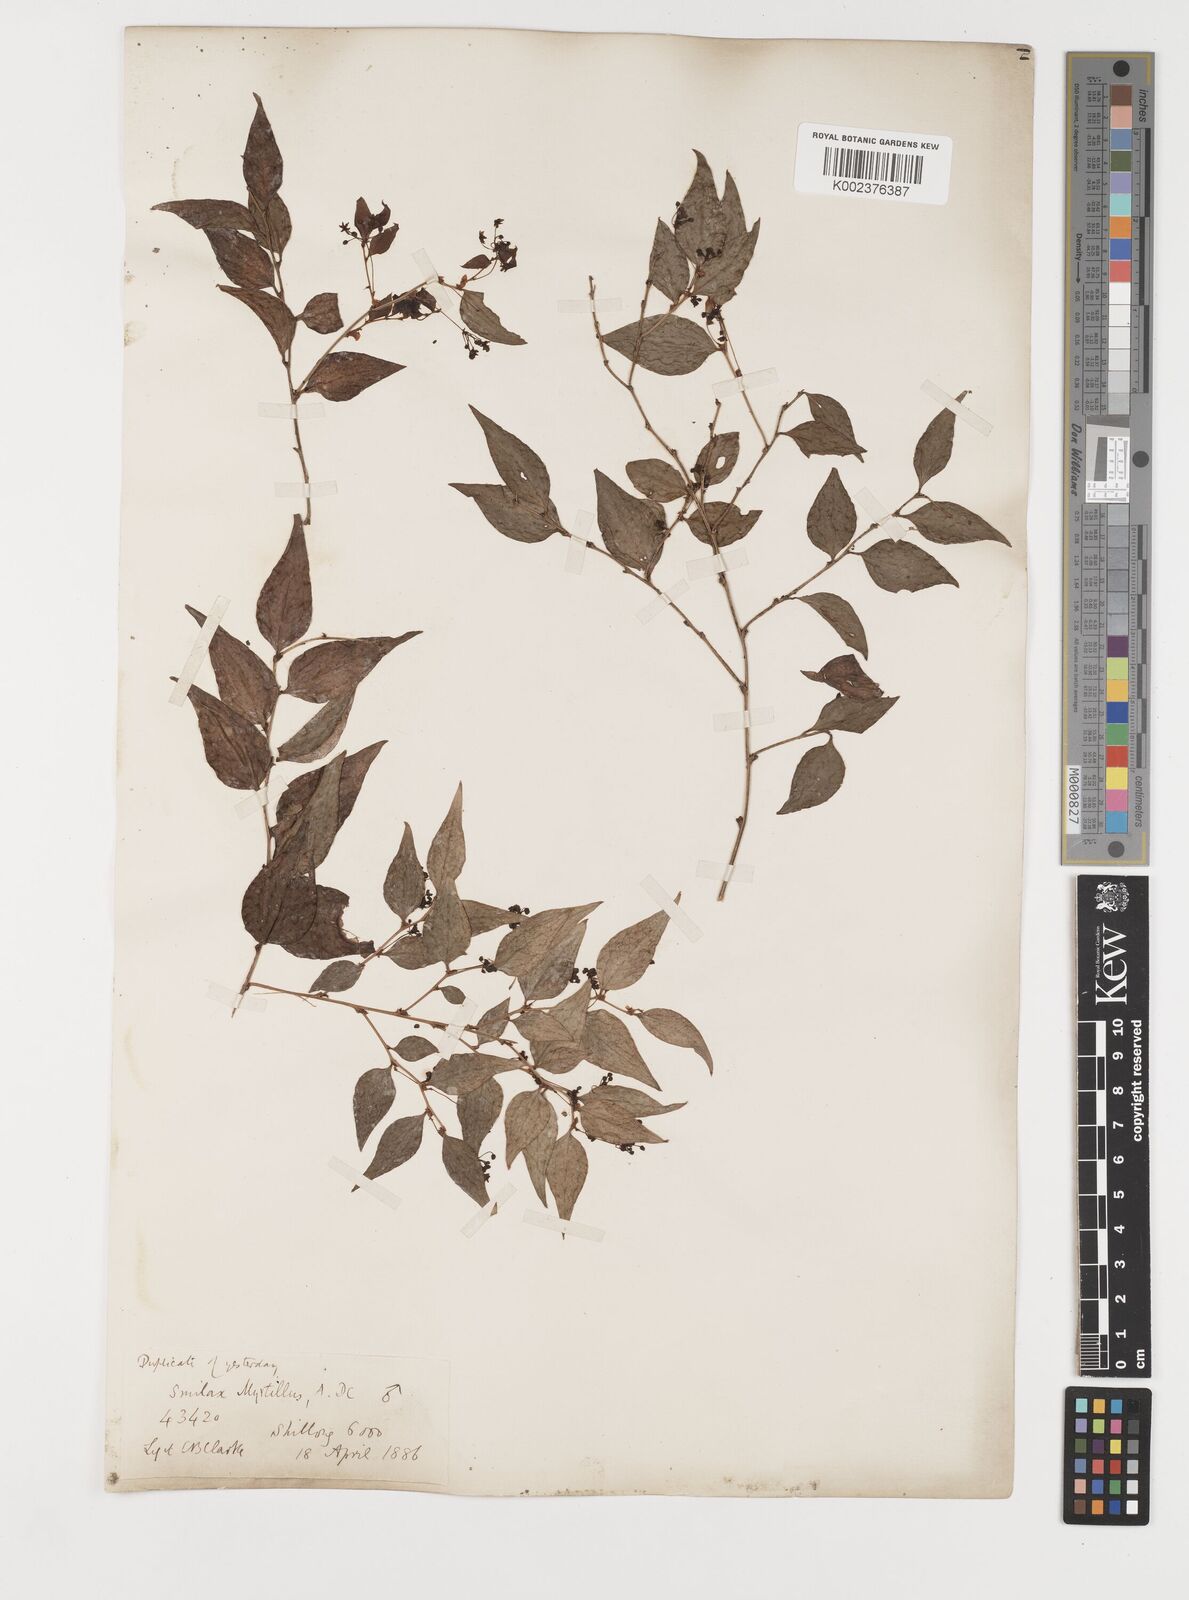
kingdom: Plantae
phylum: Tracheophyta
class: Liliopsida
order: Liliales
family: Smilacaceae
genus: Smilax
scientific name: Smilax myrtillus
